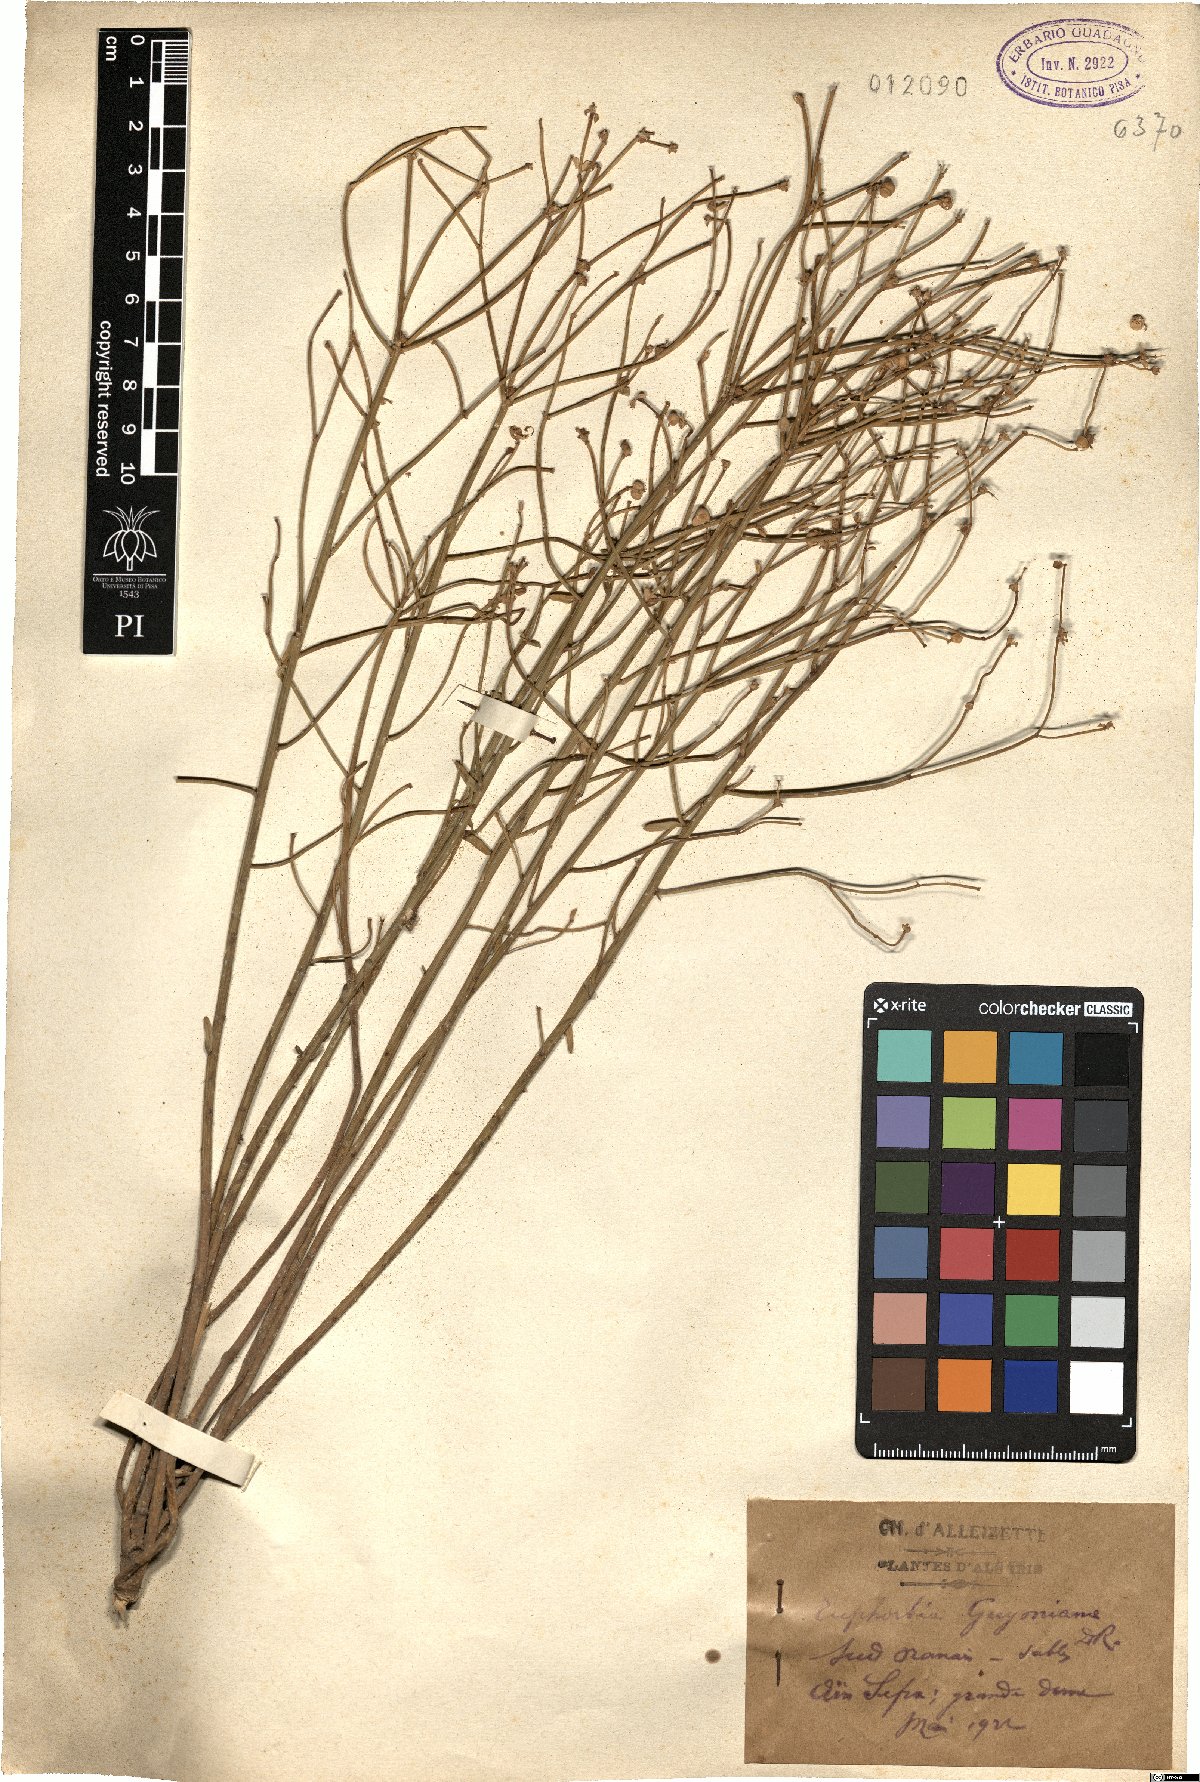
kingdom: Plantae
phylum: Tracheophyta
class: Magnoliopsida
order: Malpighiales
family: Euphorbiaceae
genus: Euphorbia
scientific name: Euphorbia guyoniana
